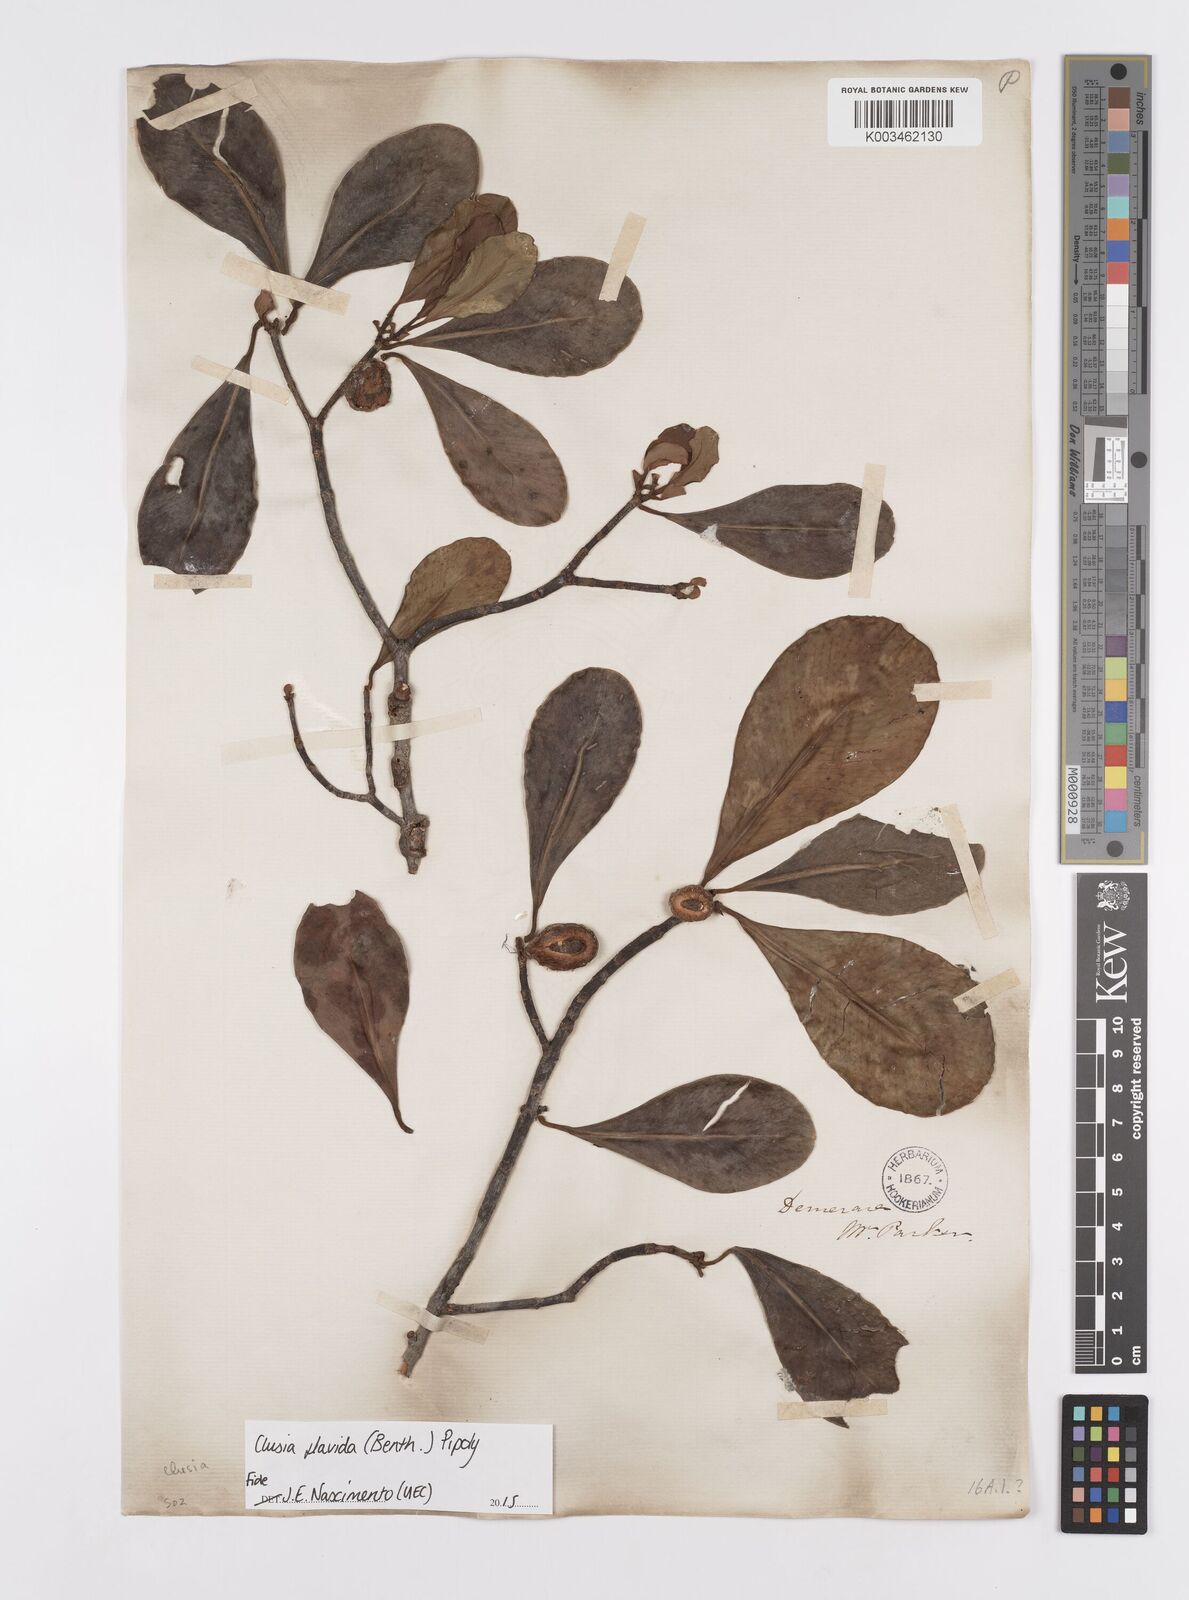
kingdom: Plantae
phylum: Tracheophyta
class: Magnoliopsida
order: Malpighiales
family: Clusiaceae
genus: Clusia
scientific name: Clusia flavida
